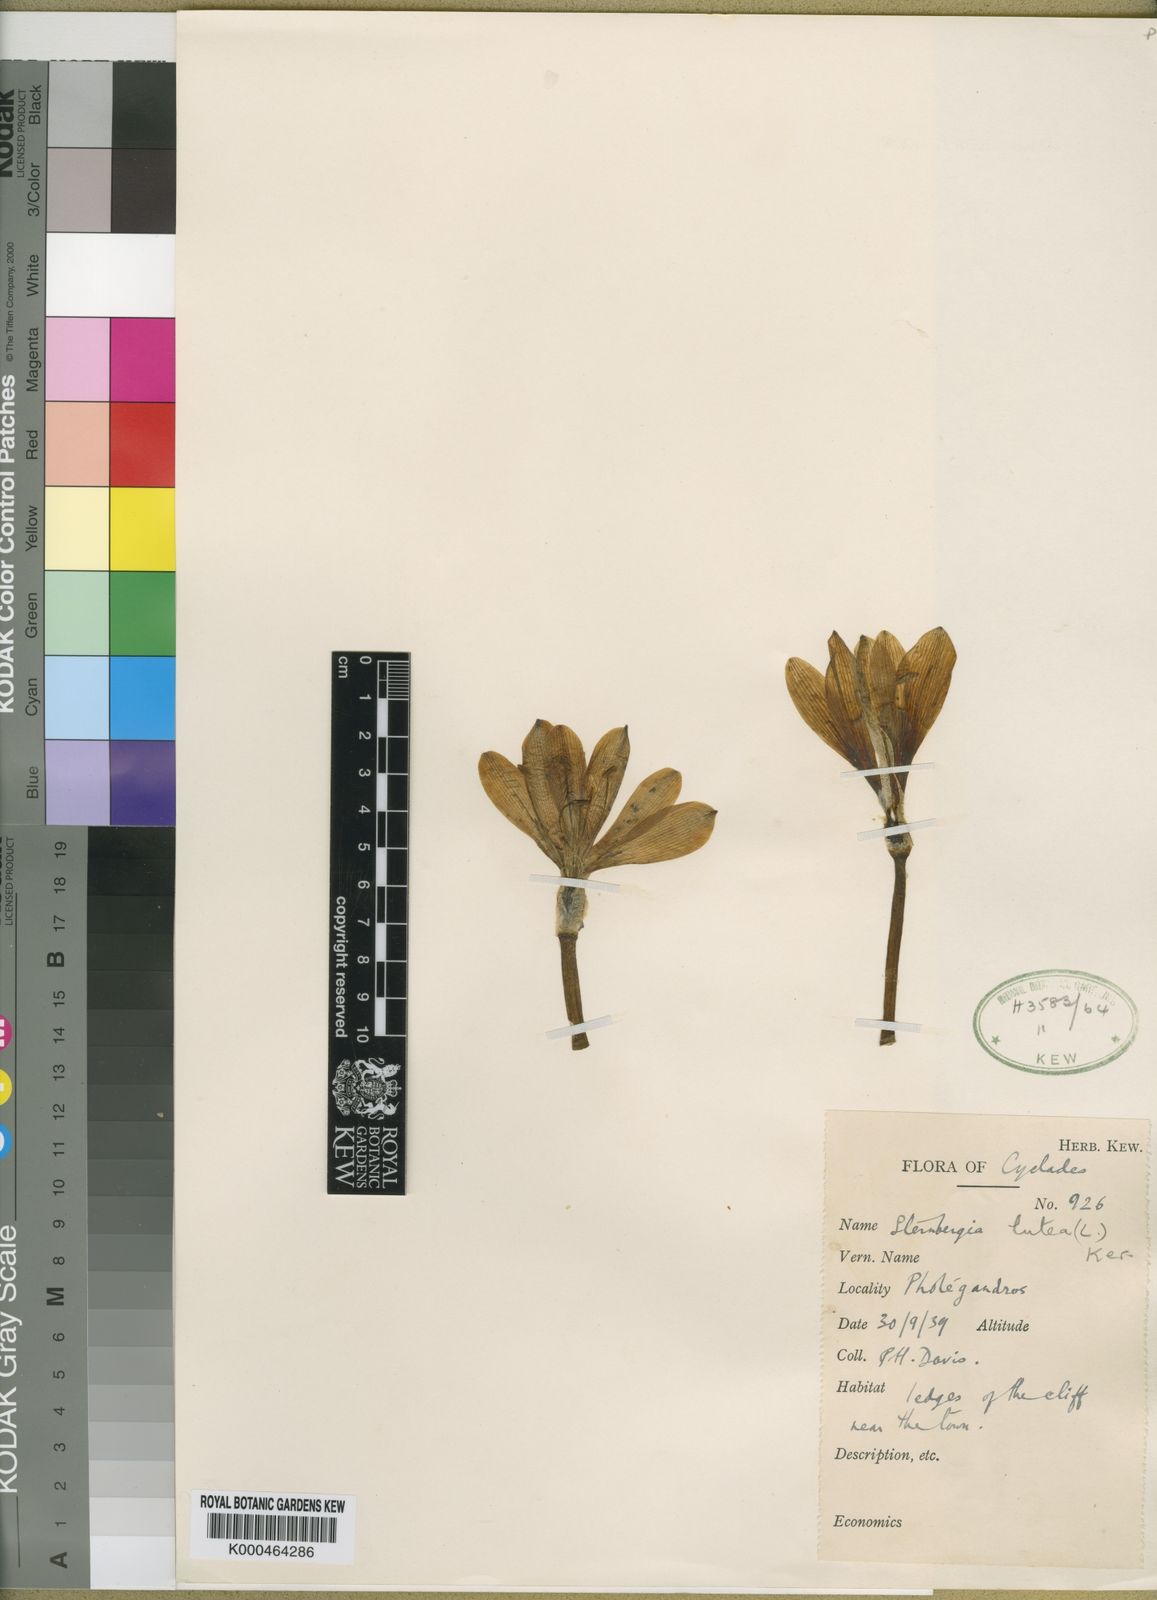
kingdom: Plantae
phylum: Tracheophyta
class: Liliopsida
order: Asparagales
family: Amaryllidaceae
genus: Sternbergia
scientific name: Sternbergia
